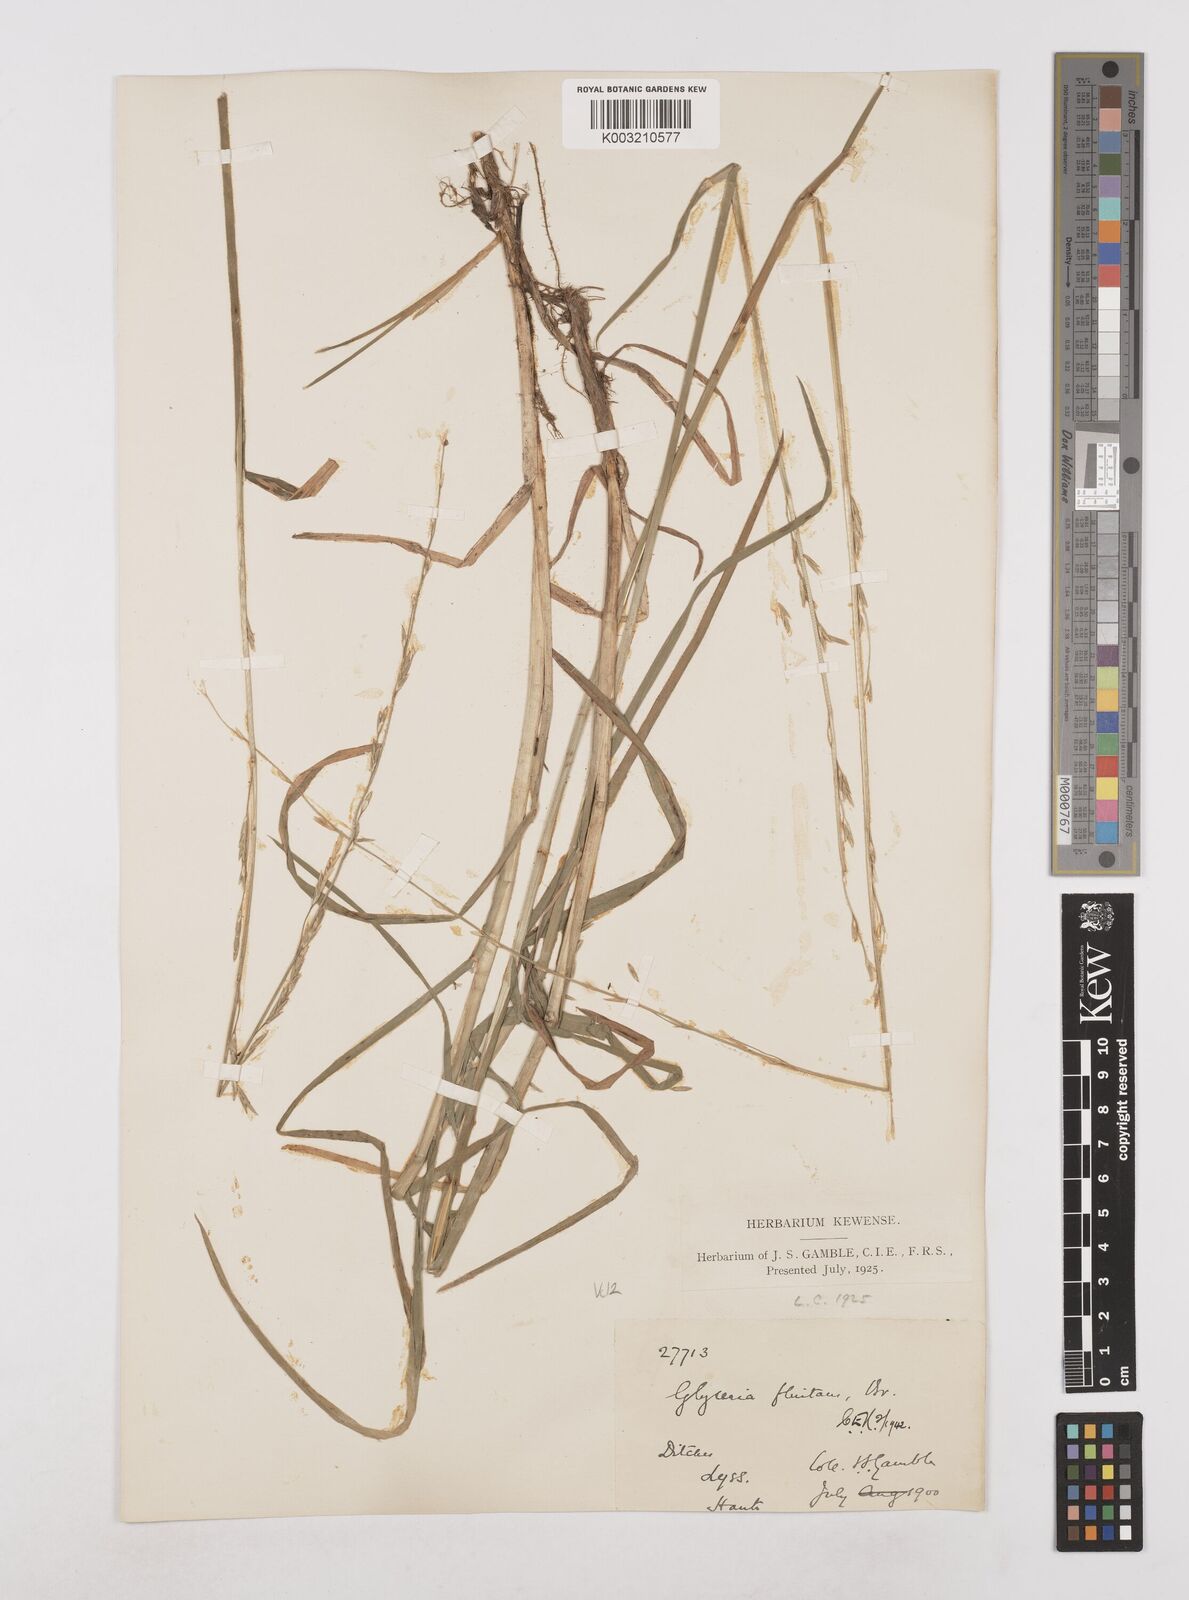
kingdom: Plantae
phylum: Tracheophyta
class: Liliopsida
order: Poales
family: Poaceae
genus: Glyceria
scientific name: Glyceria fluitans
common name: Floating sweet-grass
